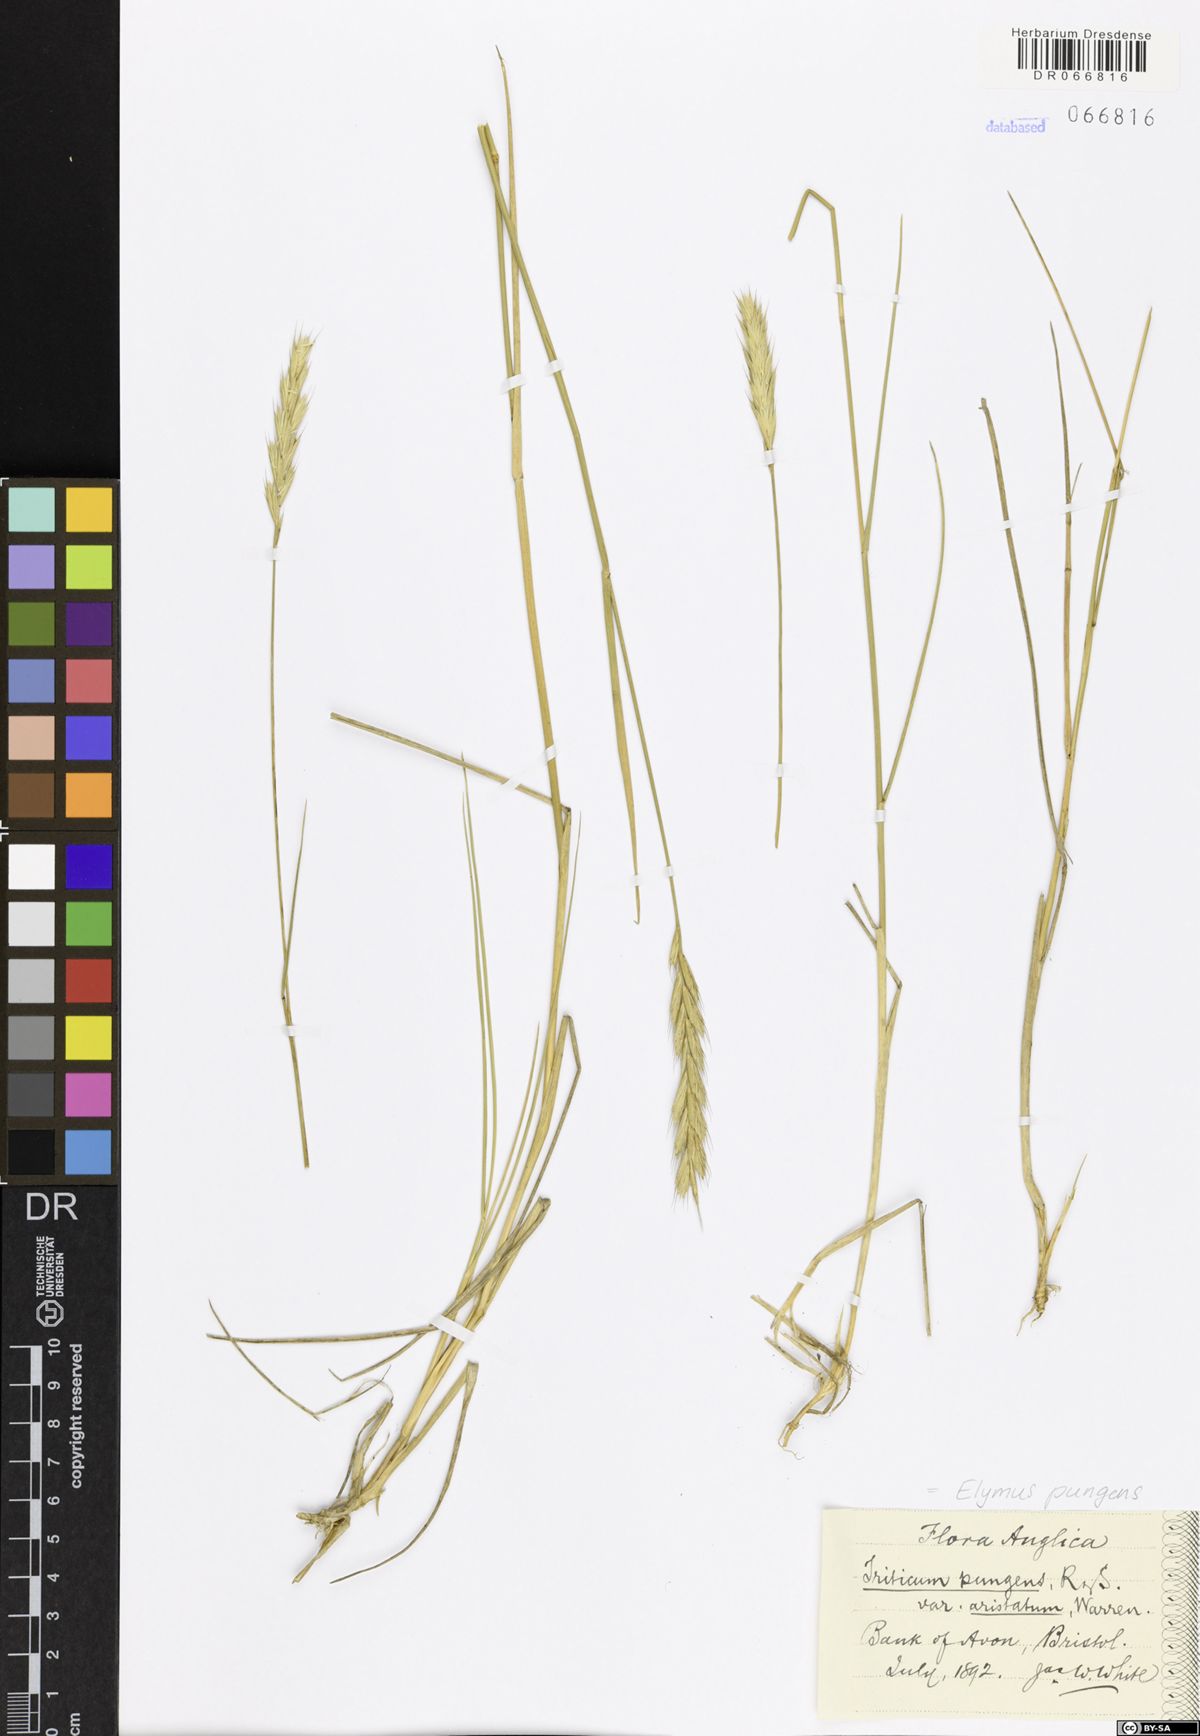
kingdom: Plantae
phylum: Tracheophyta
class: Liliopsida
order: Poales
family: Poaceae
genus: Elymus
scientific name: Elymus pungens
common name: Sea couch
